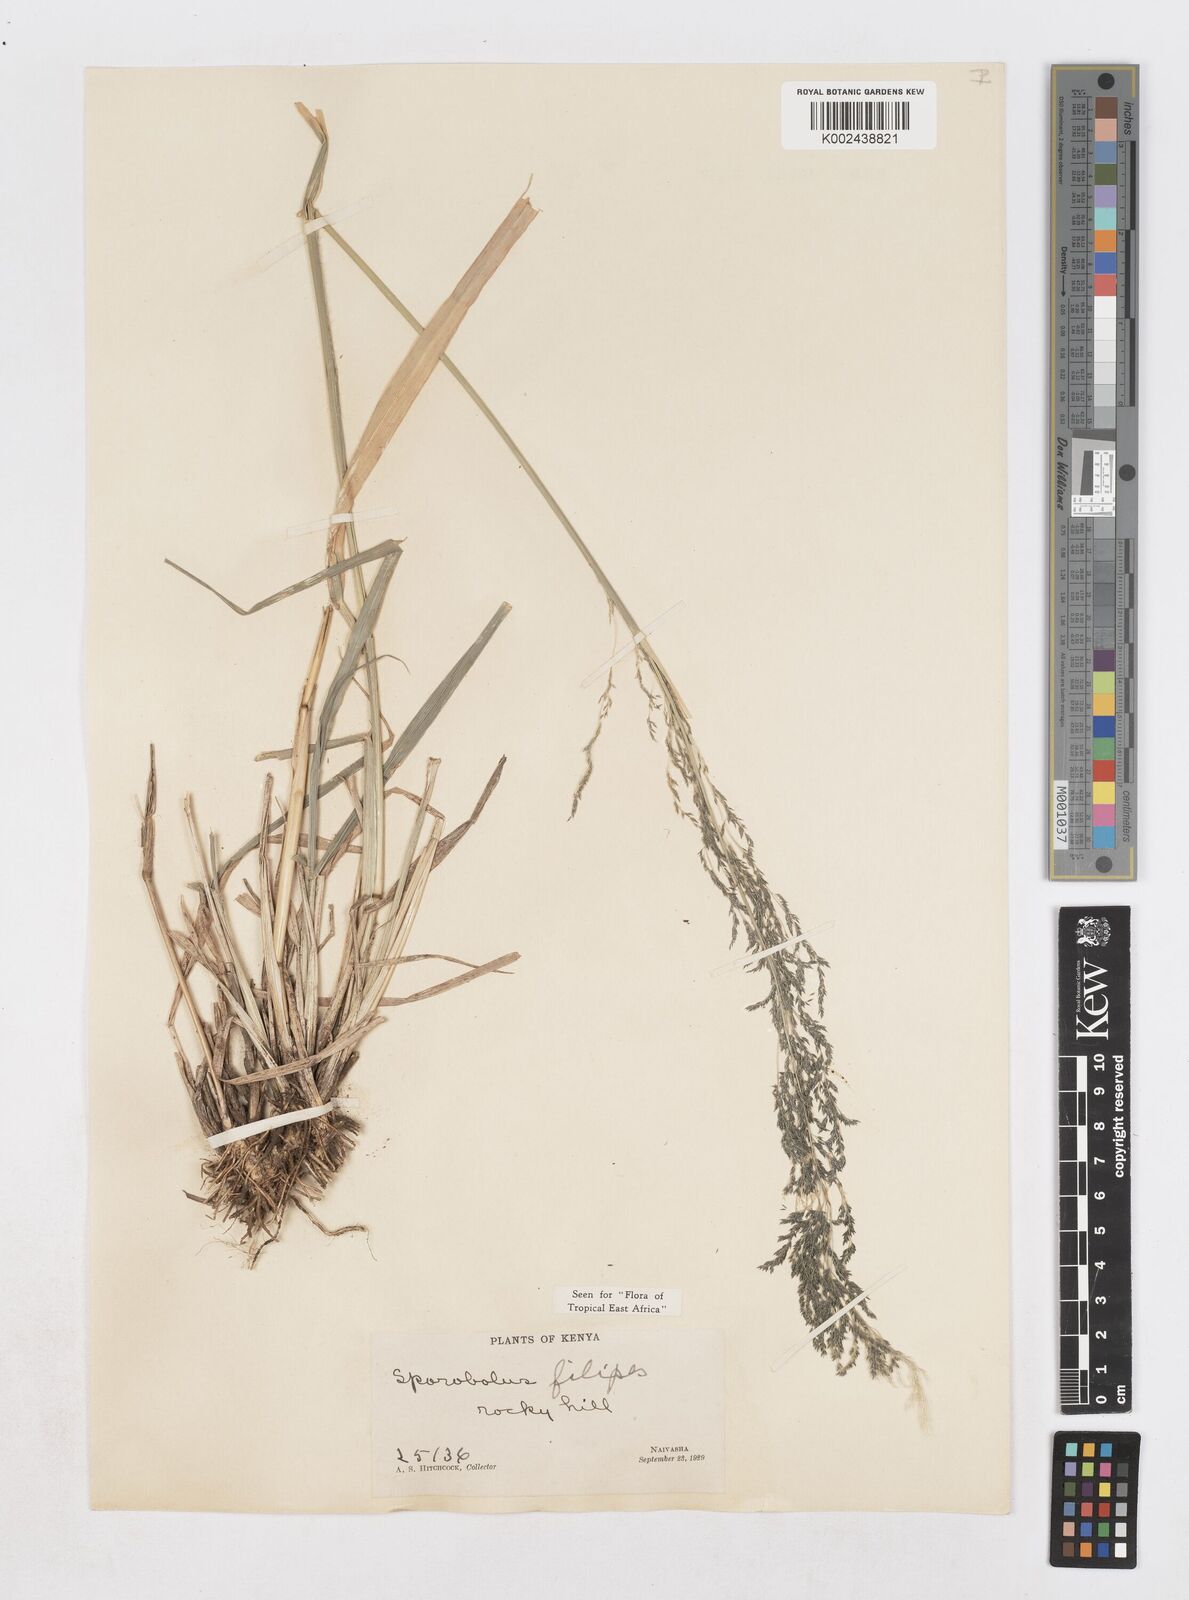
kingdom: Plantae
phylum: Tracheophyta
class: Liliopsida
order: Poales
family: Poaceae
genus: Sporobolus
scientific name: Sporobolus agrostoides
